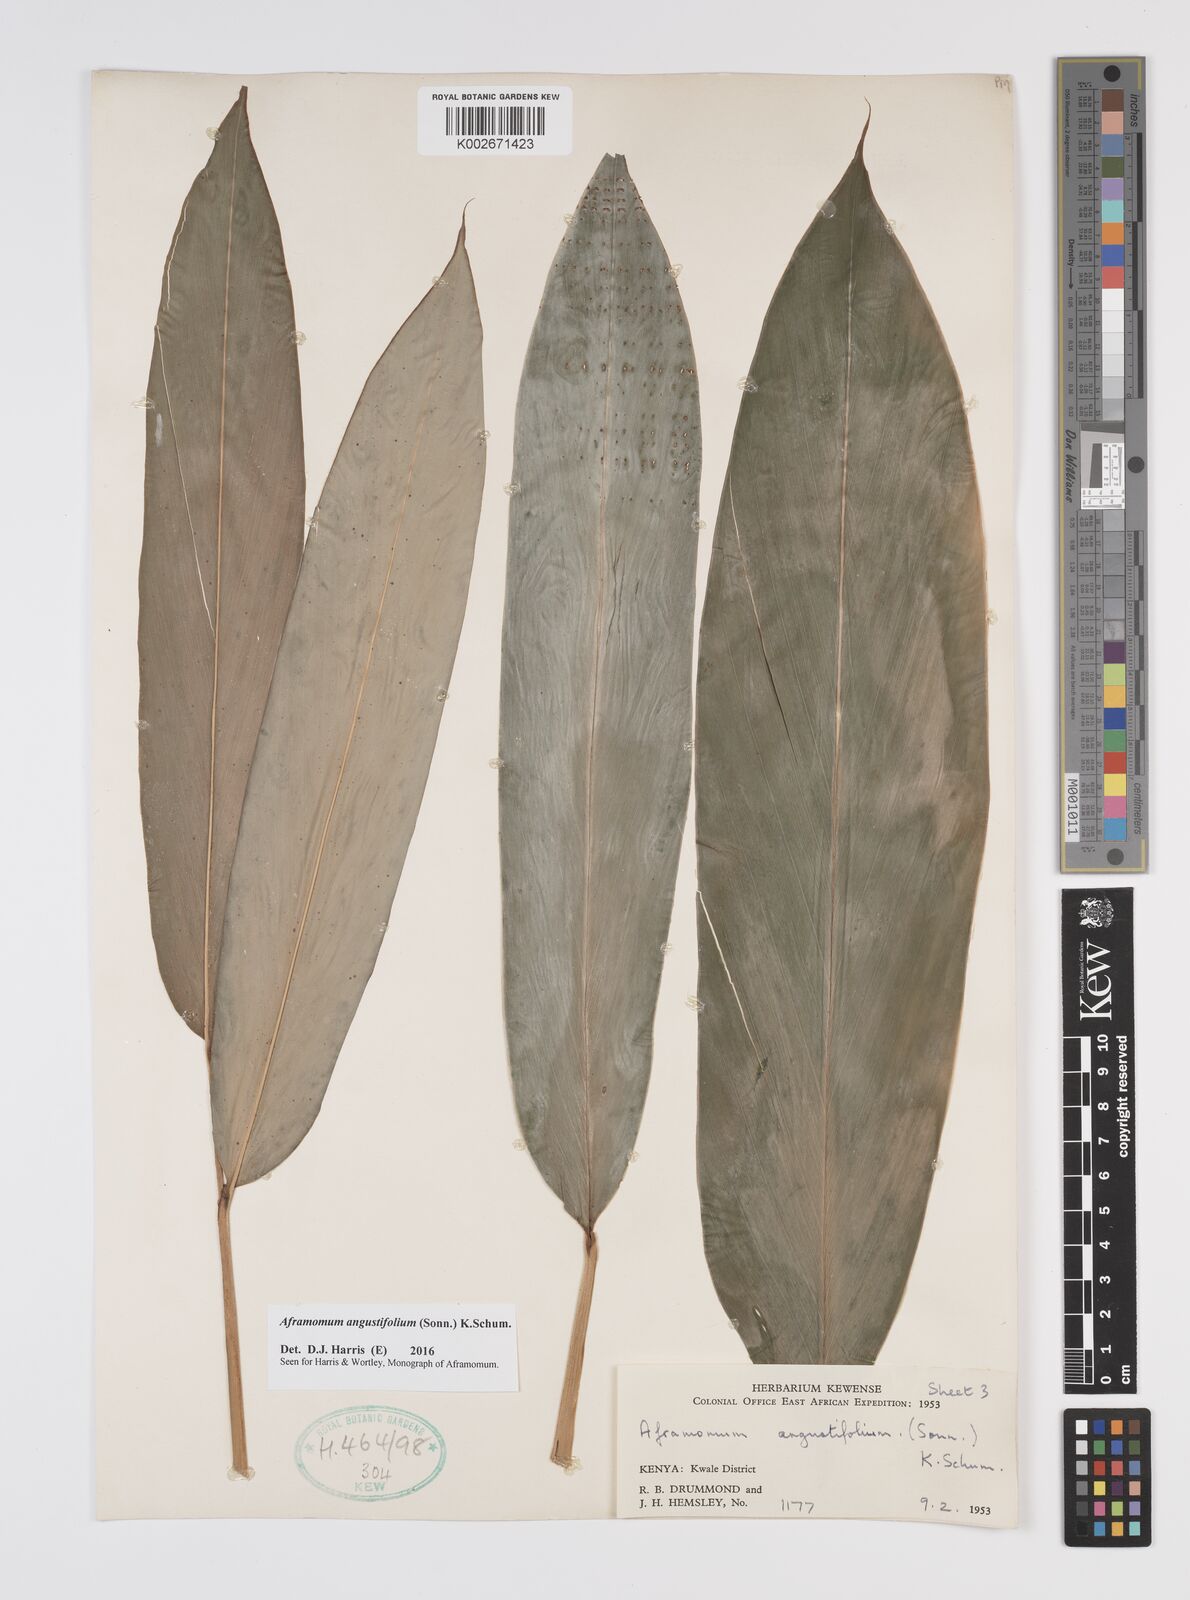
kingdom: Plantae
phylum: Tracheophyta
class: Liliopsida
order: Zingiberales
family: Zingiberaceae
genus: Aframomum
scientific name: Aframomum angustifolium
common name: Guinea grains
